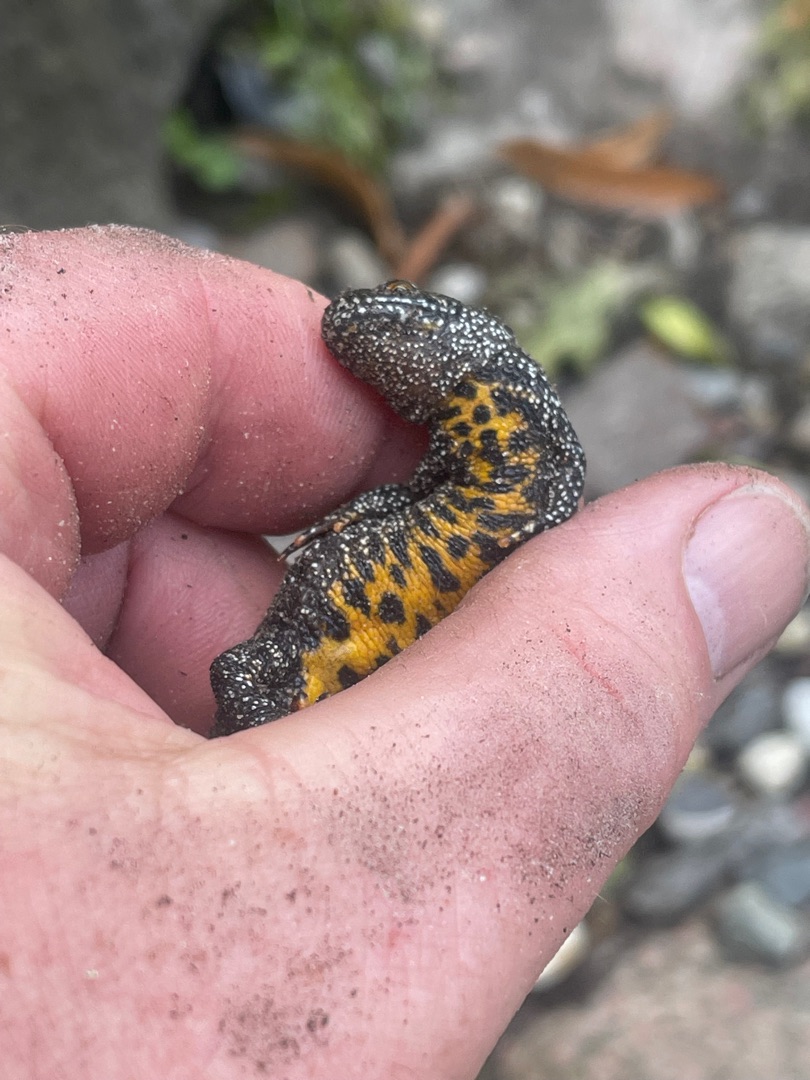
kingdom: Animalia
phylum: Chordata
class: Amphibia
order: Caudata
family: Salamandridae
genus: Triturus
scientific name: Triturus cristatus
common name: Stor vandsalamander
